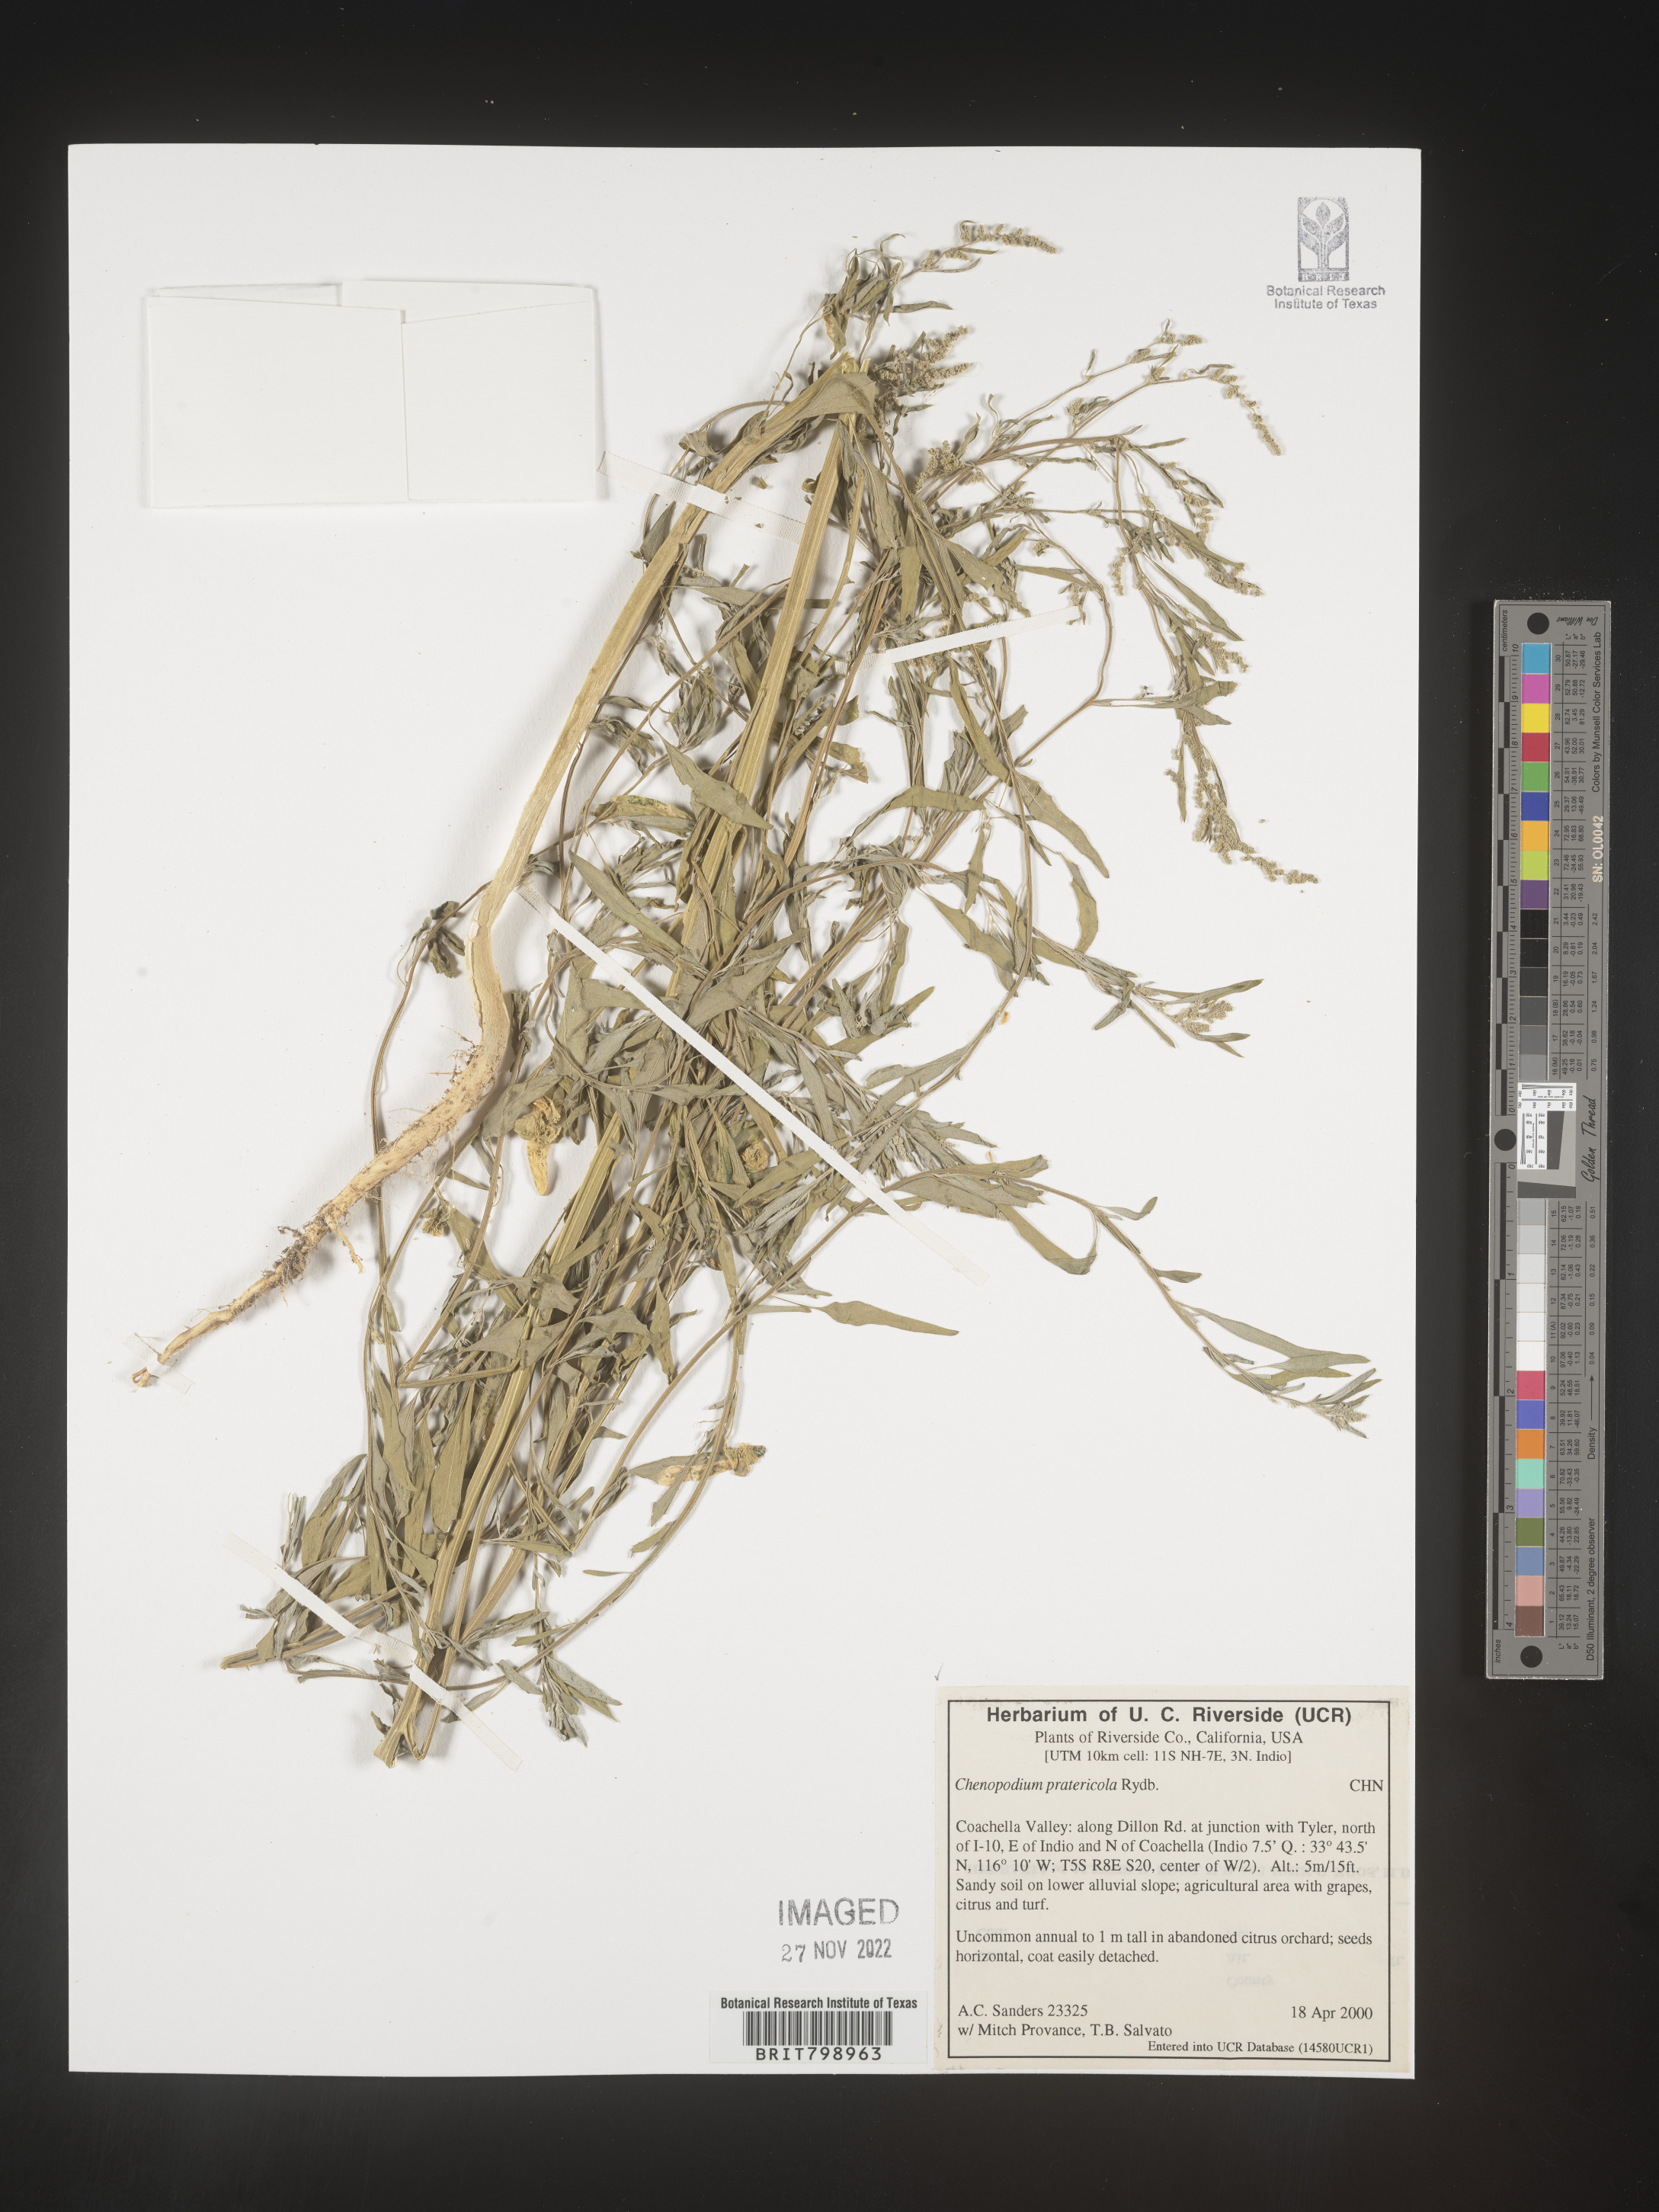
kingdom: Plantae
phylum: Tracheophyta
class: Magnoliopsida
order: Caryophyllales
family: Amaranthaceae
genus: Chenopodium
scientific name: Chenopodium pratericola
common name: Desert goosefoot
